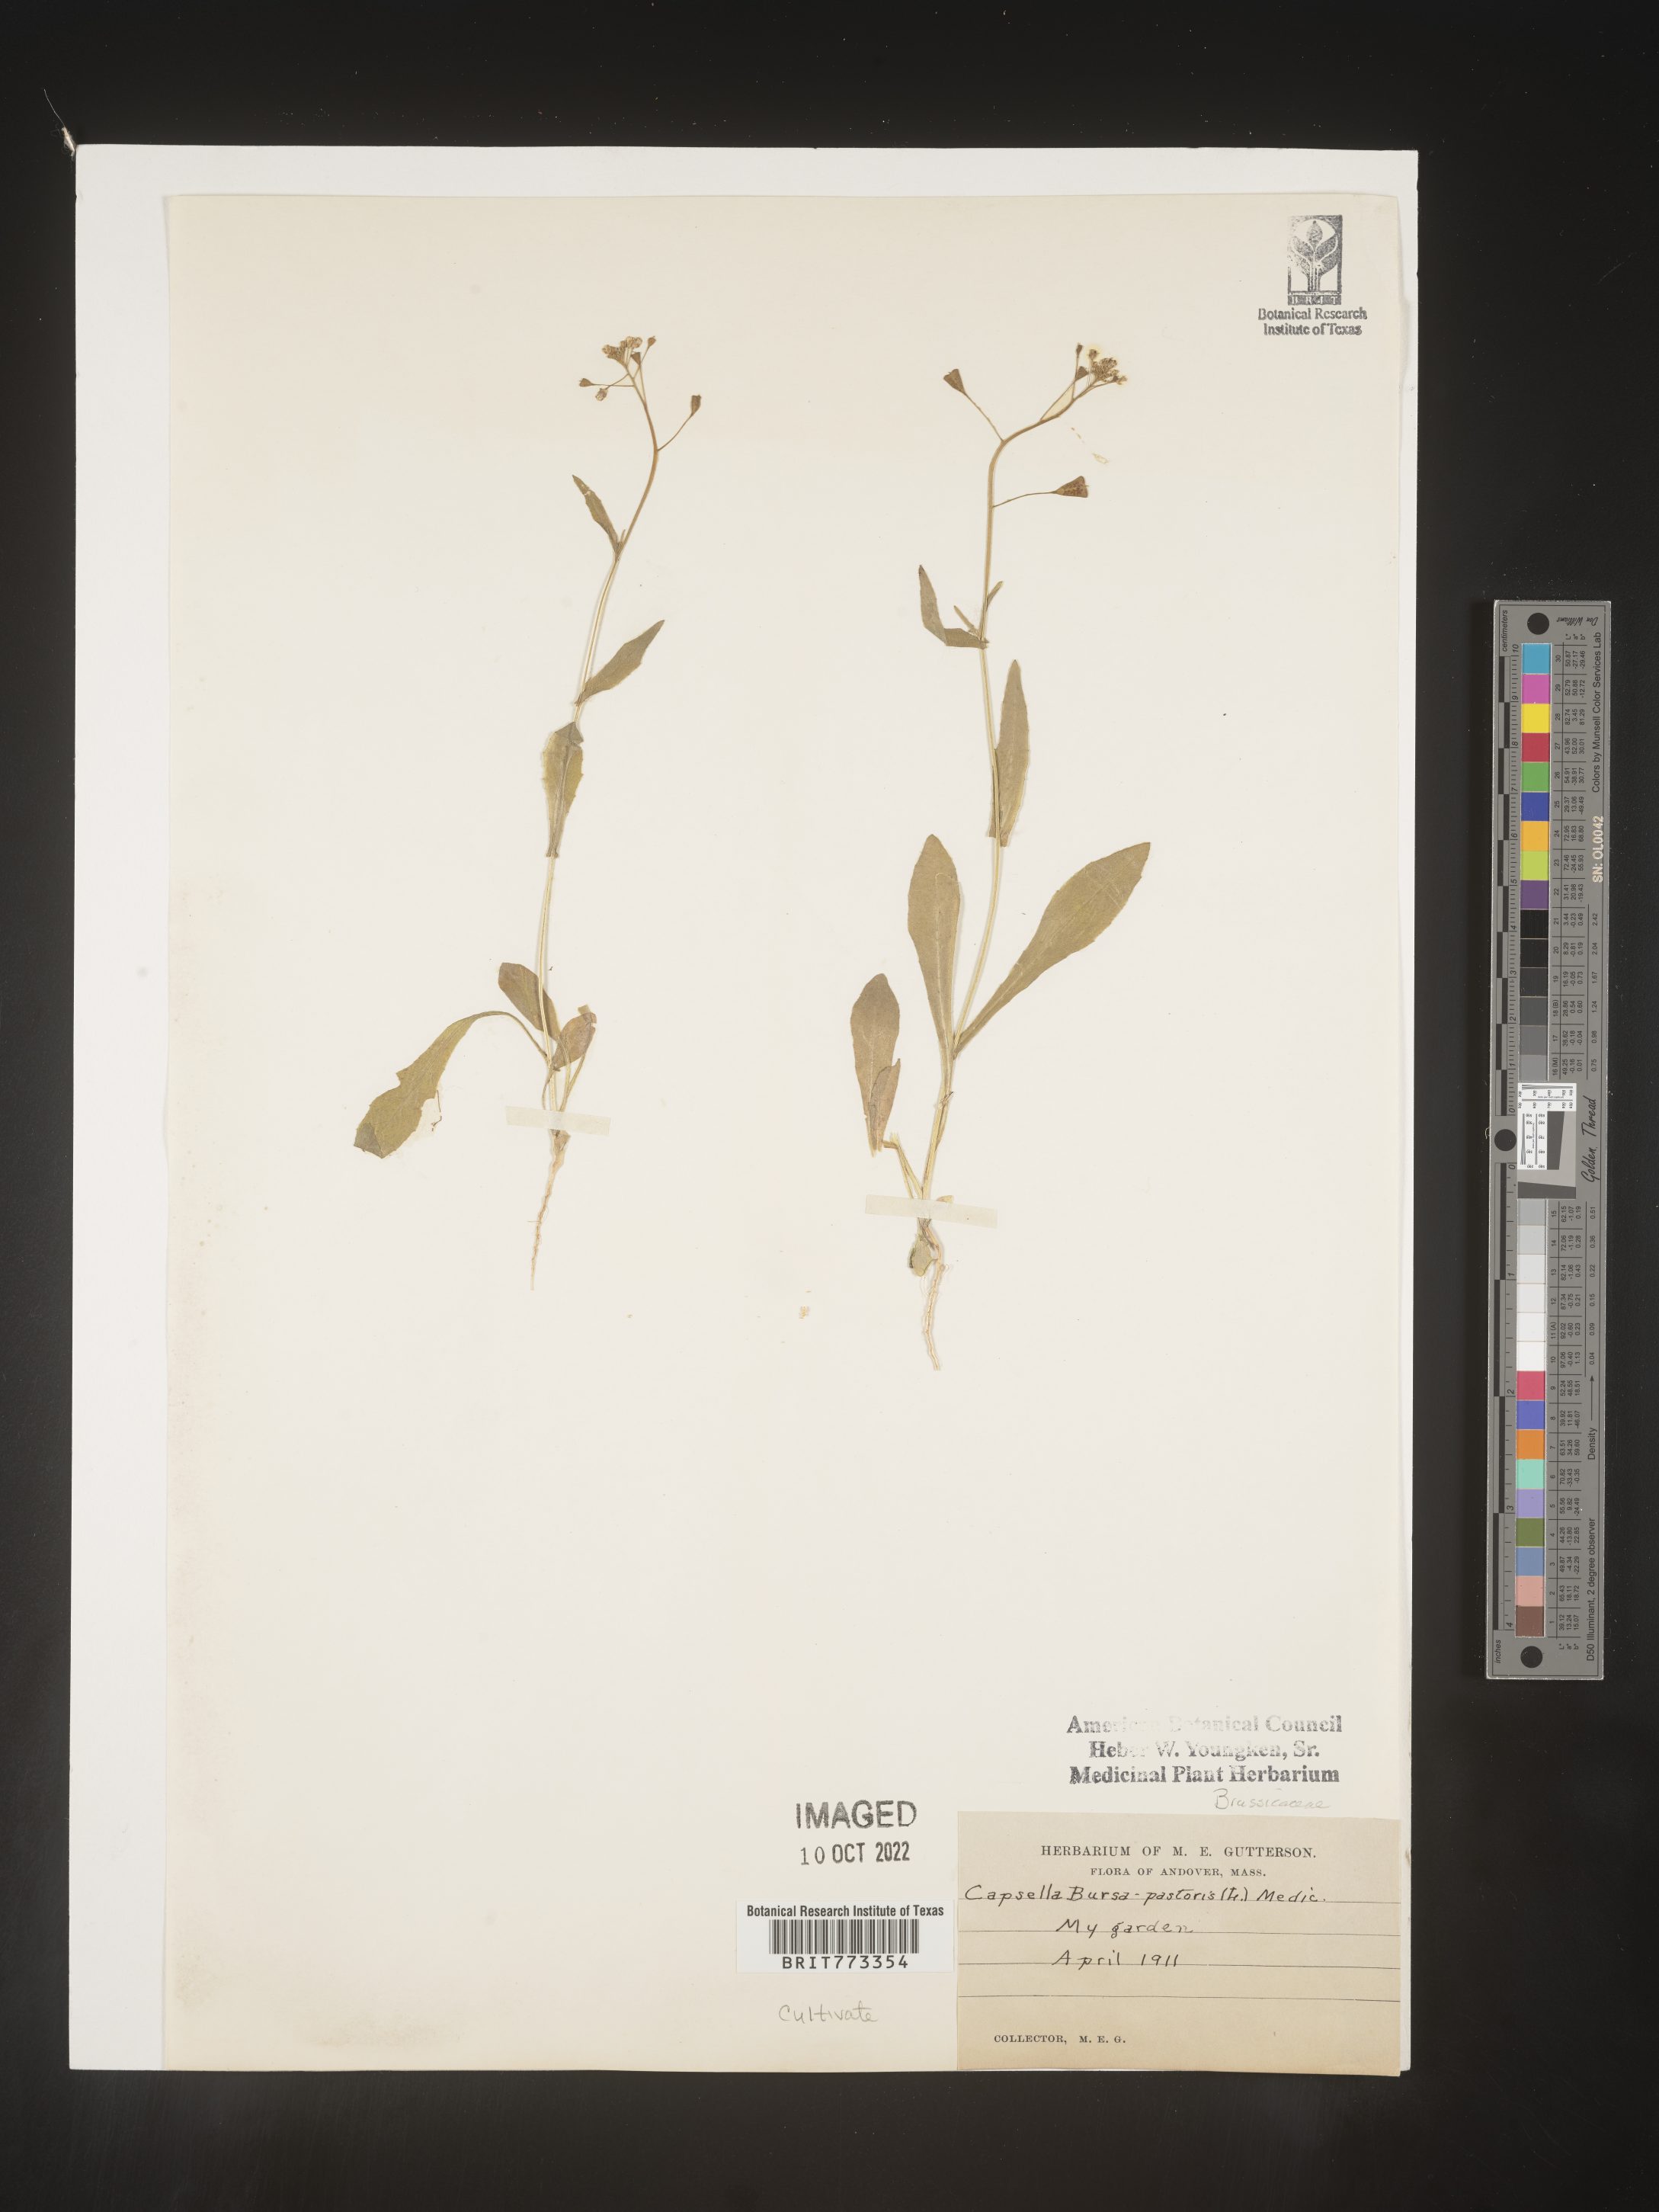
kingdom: Plantae
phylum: Tracheophyta
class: Magnoliopsida
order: Brassicales
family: Brassicaceae
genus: Capsella
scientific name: Capsella
